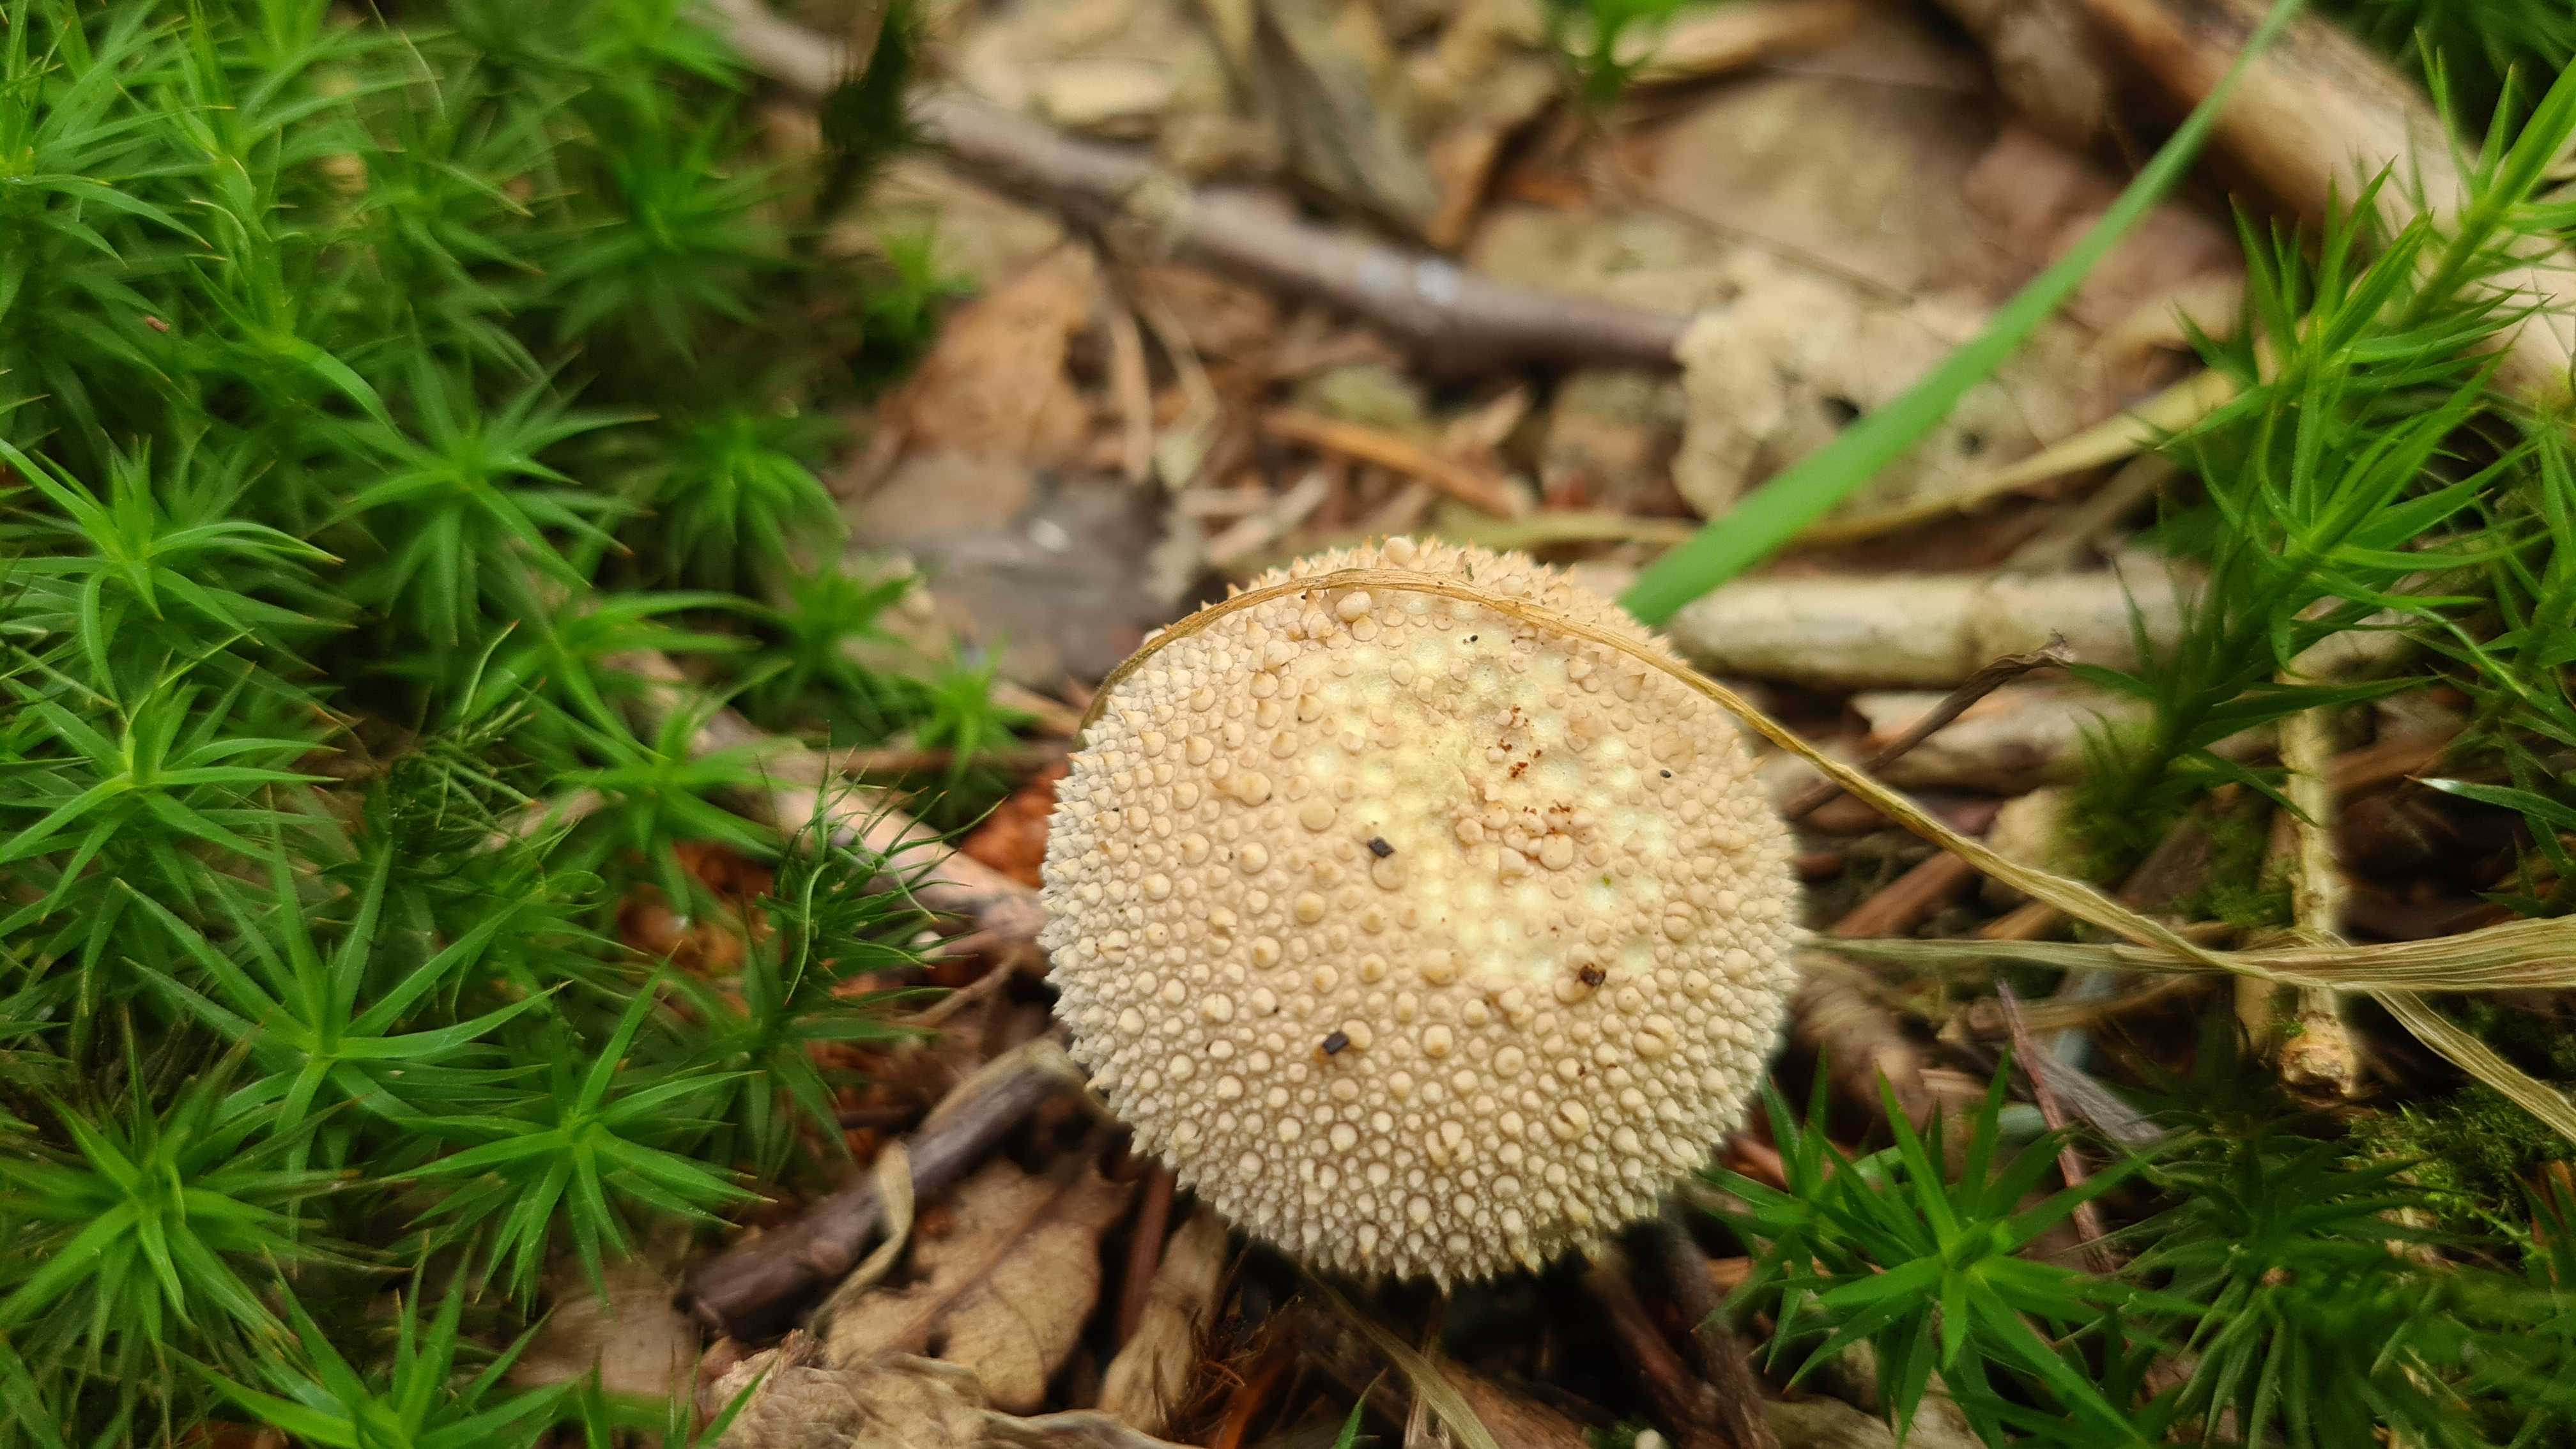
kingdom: Fungi
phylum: Basidiomycota
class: Agaricomycetes
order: Agaricales
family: Lycoperdaceae
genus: Lycoperdon
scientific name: Lycoperdon perlatum
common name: krystal-støvbold
